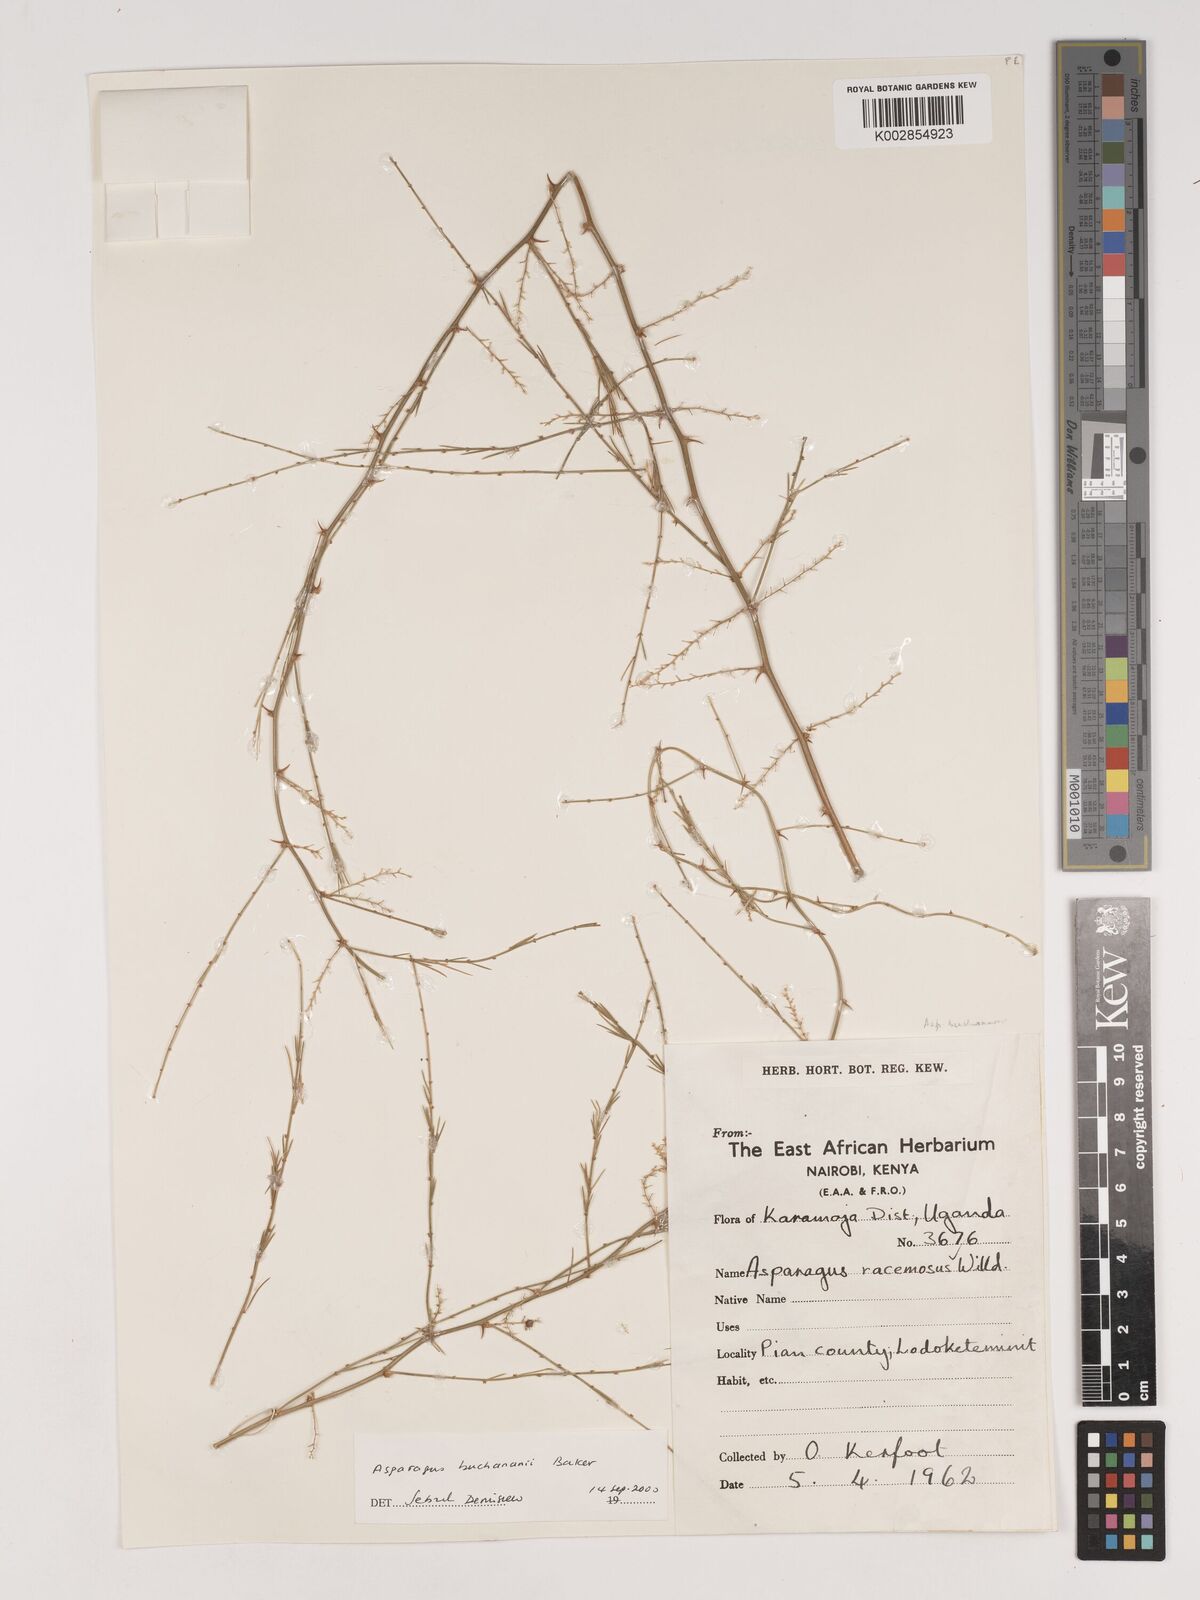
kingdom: Plantae
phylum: Tracheophyta
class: Liliopsida
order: Asparagales
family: Asparagaceae
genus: Asparagus
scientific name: Asparagus buchananii
